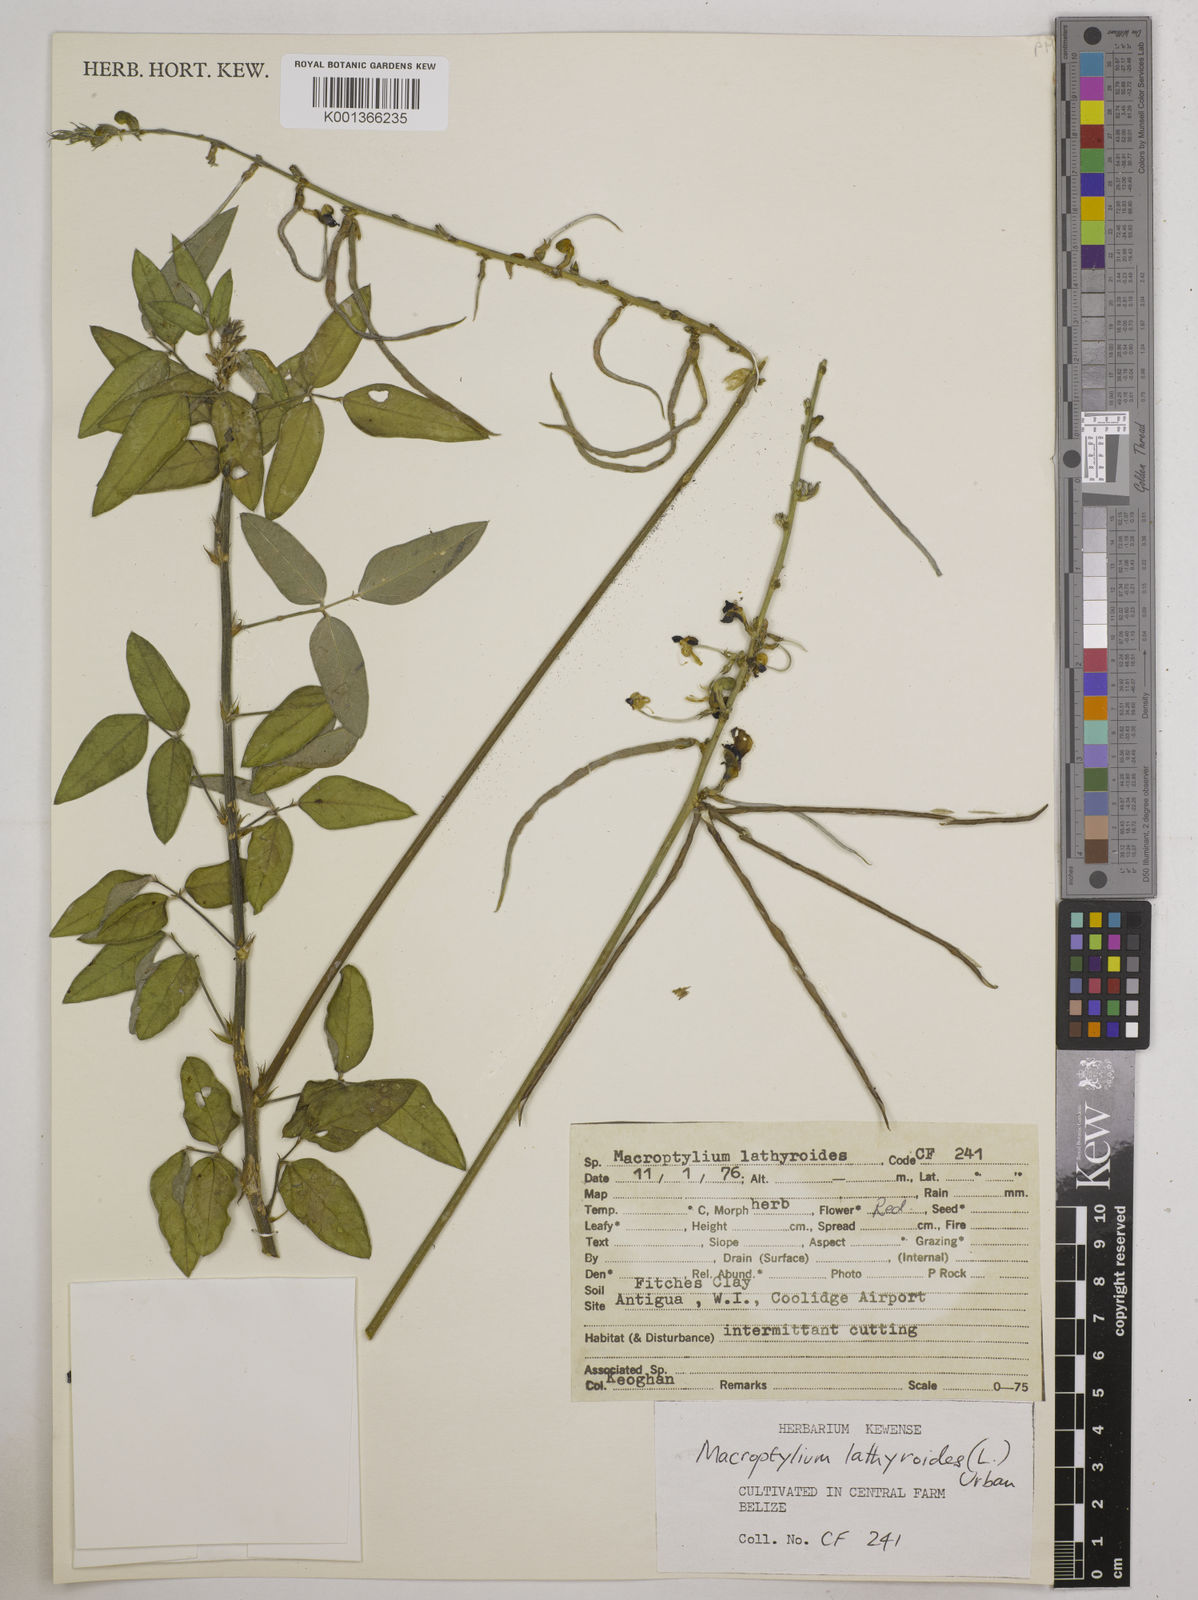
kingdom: Plantae
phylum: Tracheophyta
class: Magnoliopsida
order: Fabales
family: Fabaceae
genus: Macroptilium
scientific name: Macroptilium lathyroides
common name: Wild bushbean
